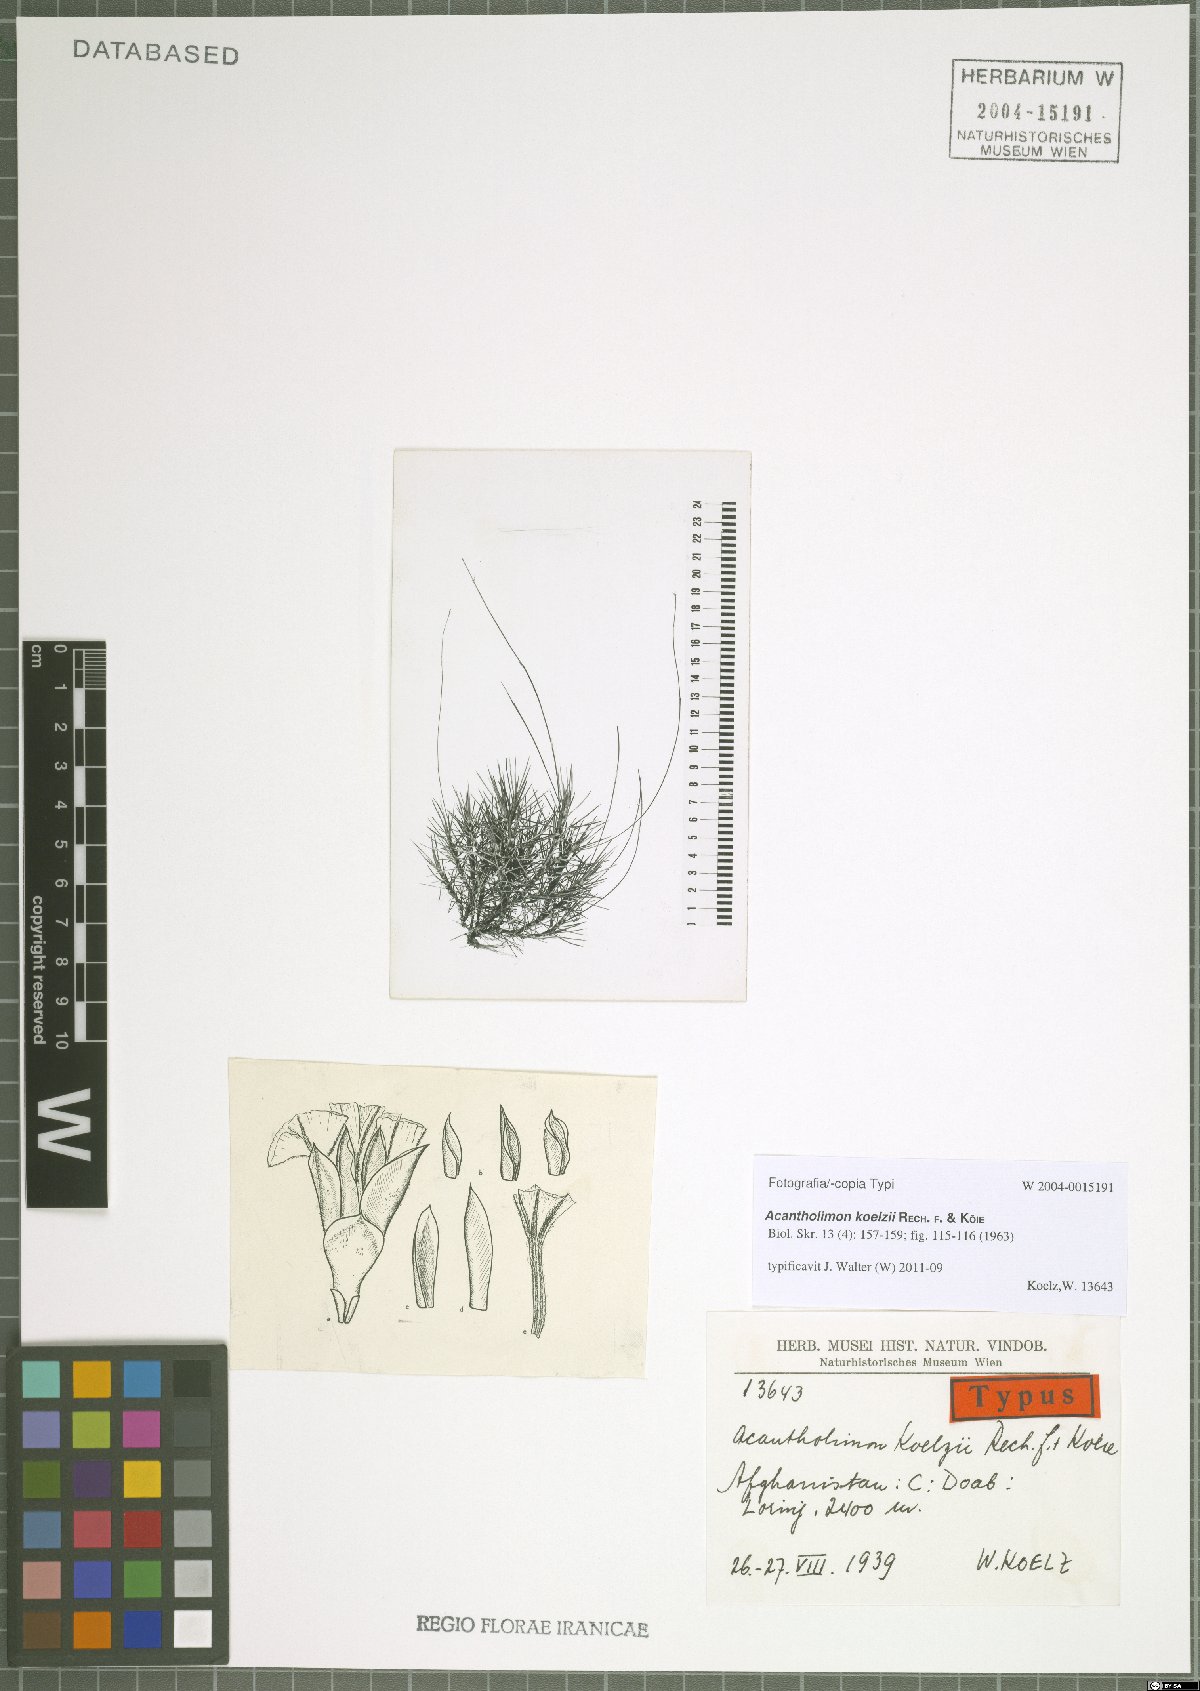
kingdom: Plantae
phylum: Tracheophyta
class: Magnoliopsida
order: Caryophyllales
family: Plumbaginaceae
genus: Acantholimon
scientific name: Acantholimon koelzii
